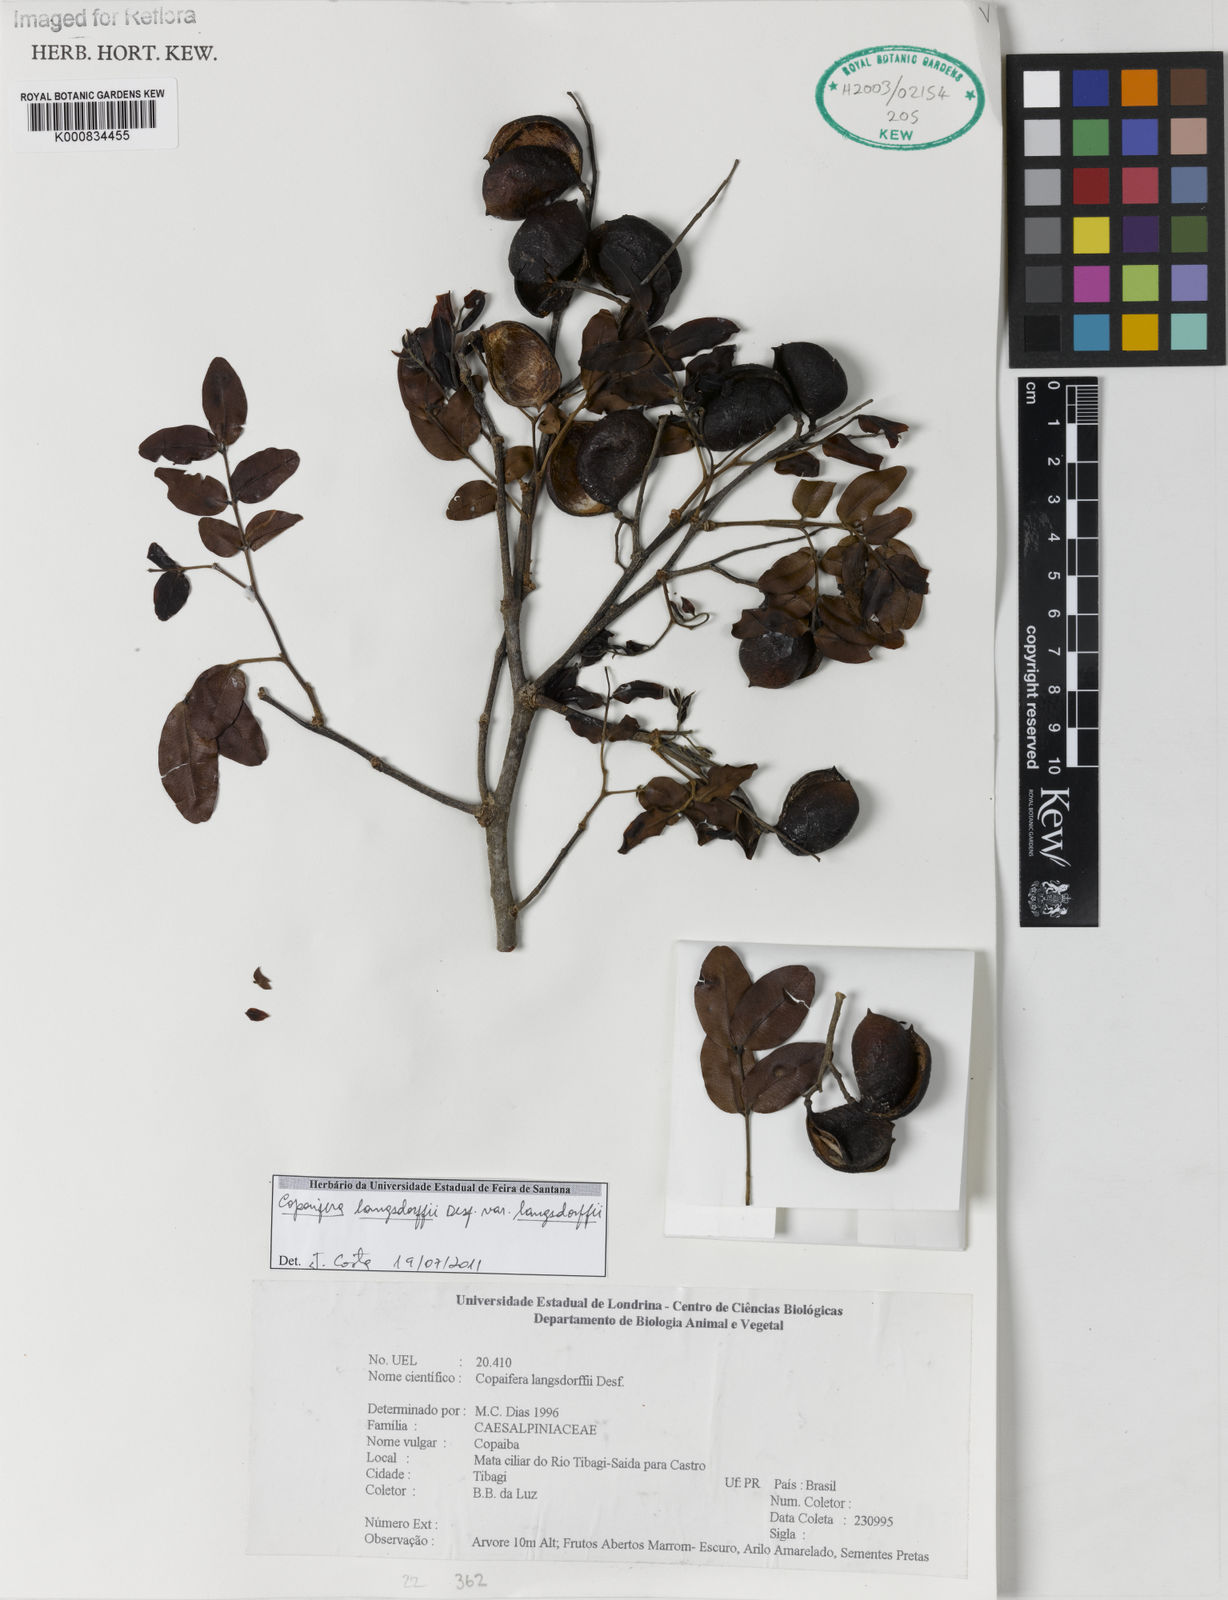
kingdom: Plantae
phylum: Tracheophyta
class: Magnoliopsida
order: Fabales
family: Fabaceae
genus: Copaifera
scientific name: Copaifera langsdorffii
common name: Brazilian diesel tree
